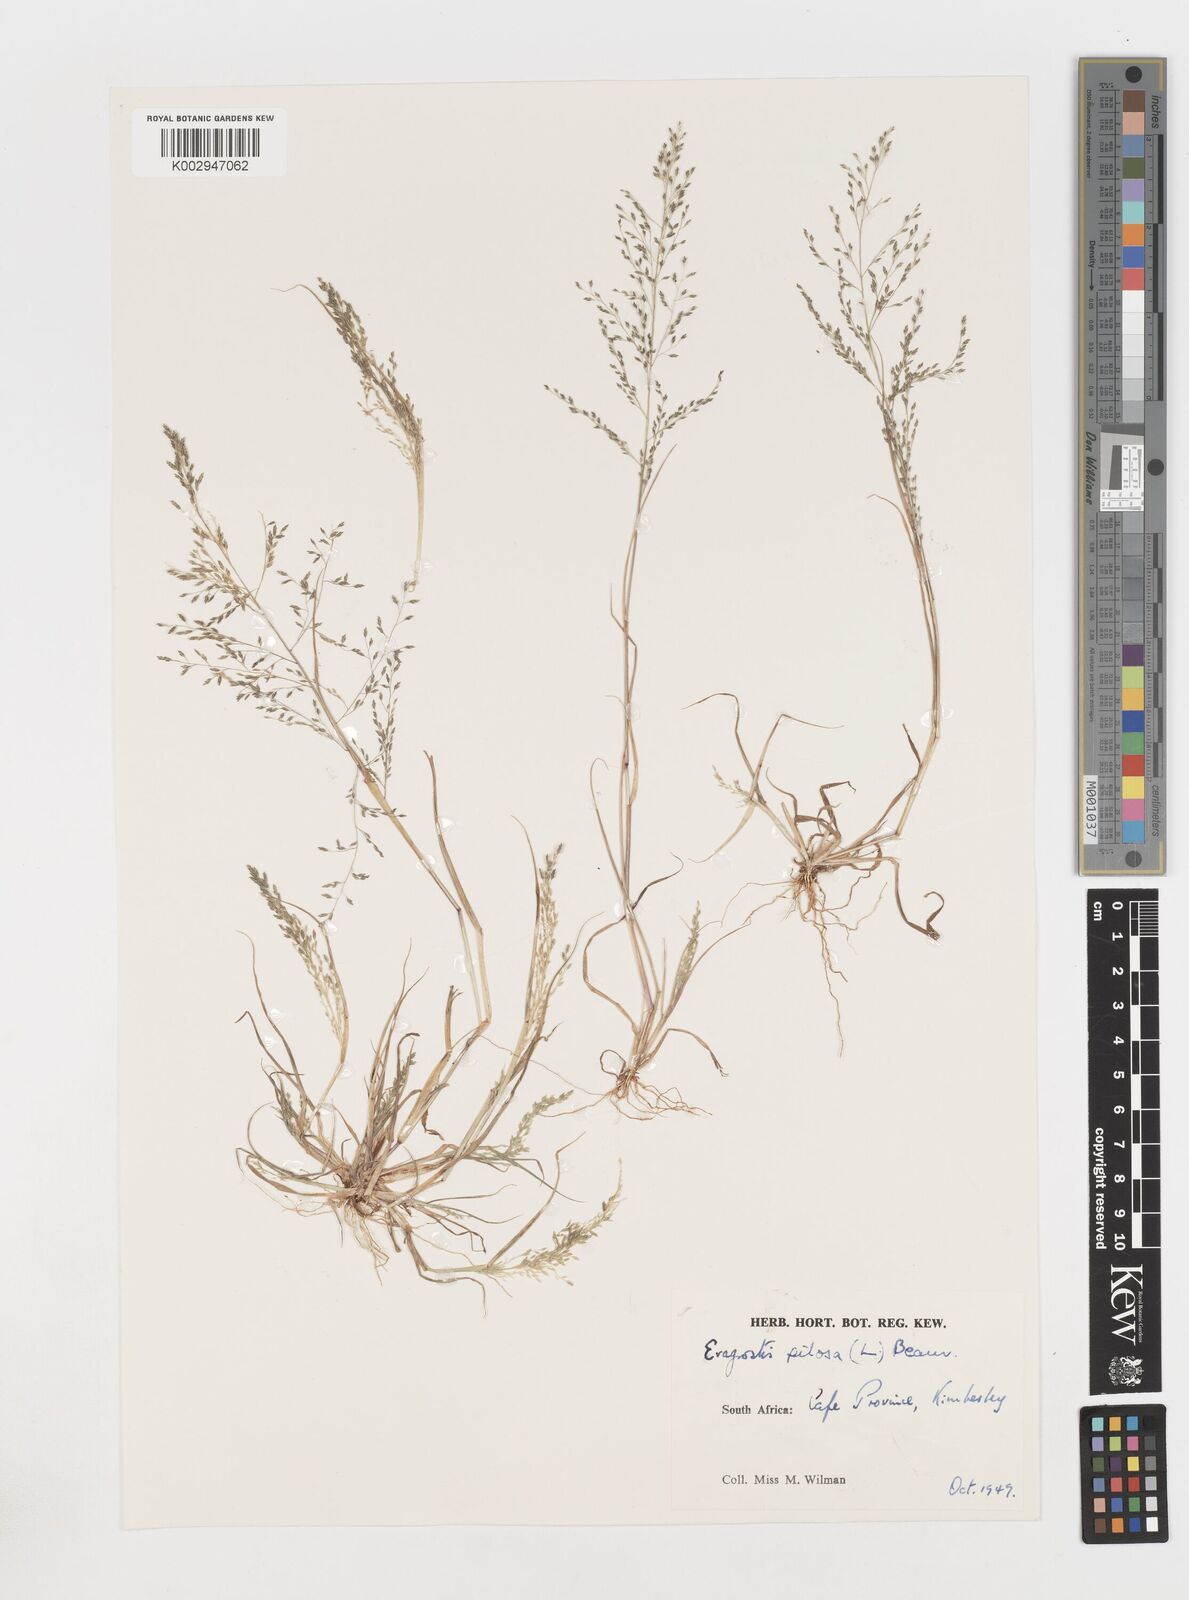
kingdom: Plantae
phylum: Tracheophyta
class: Liliopsida
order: Poales
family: Poaceae
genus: Eragrostis
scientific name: Eragrostis pilosa
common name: Indian lovegrass
